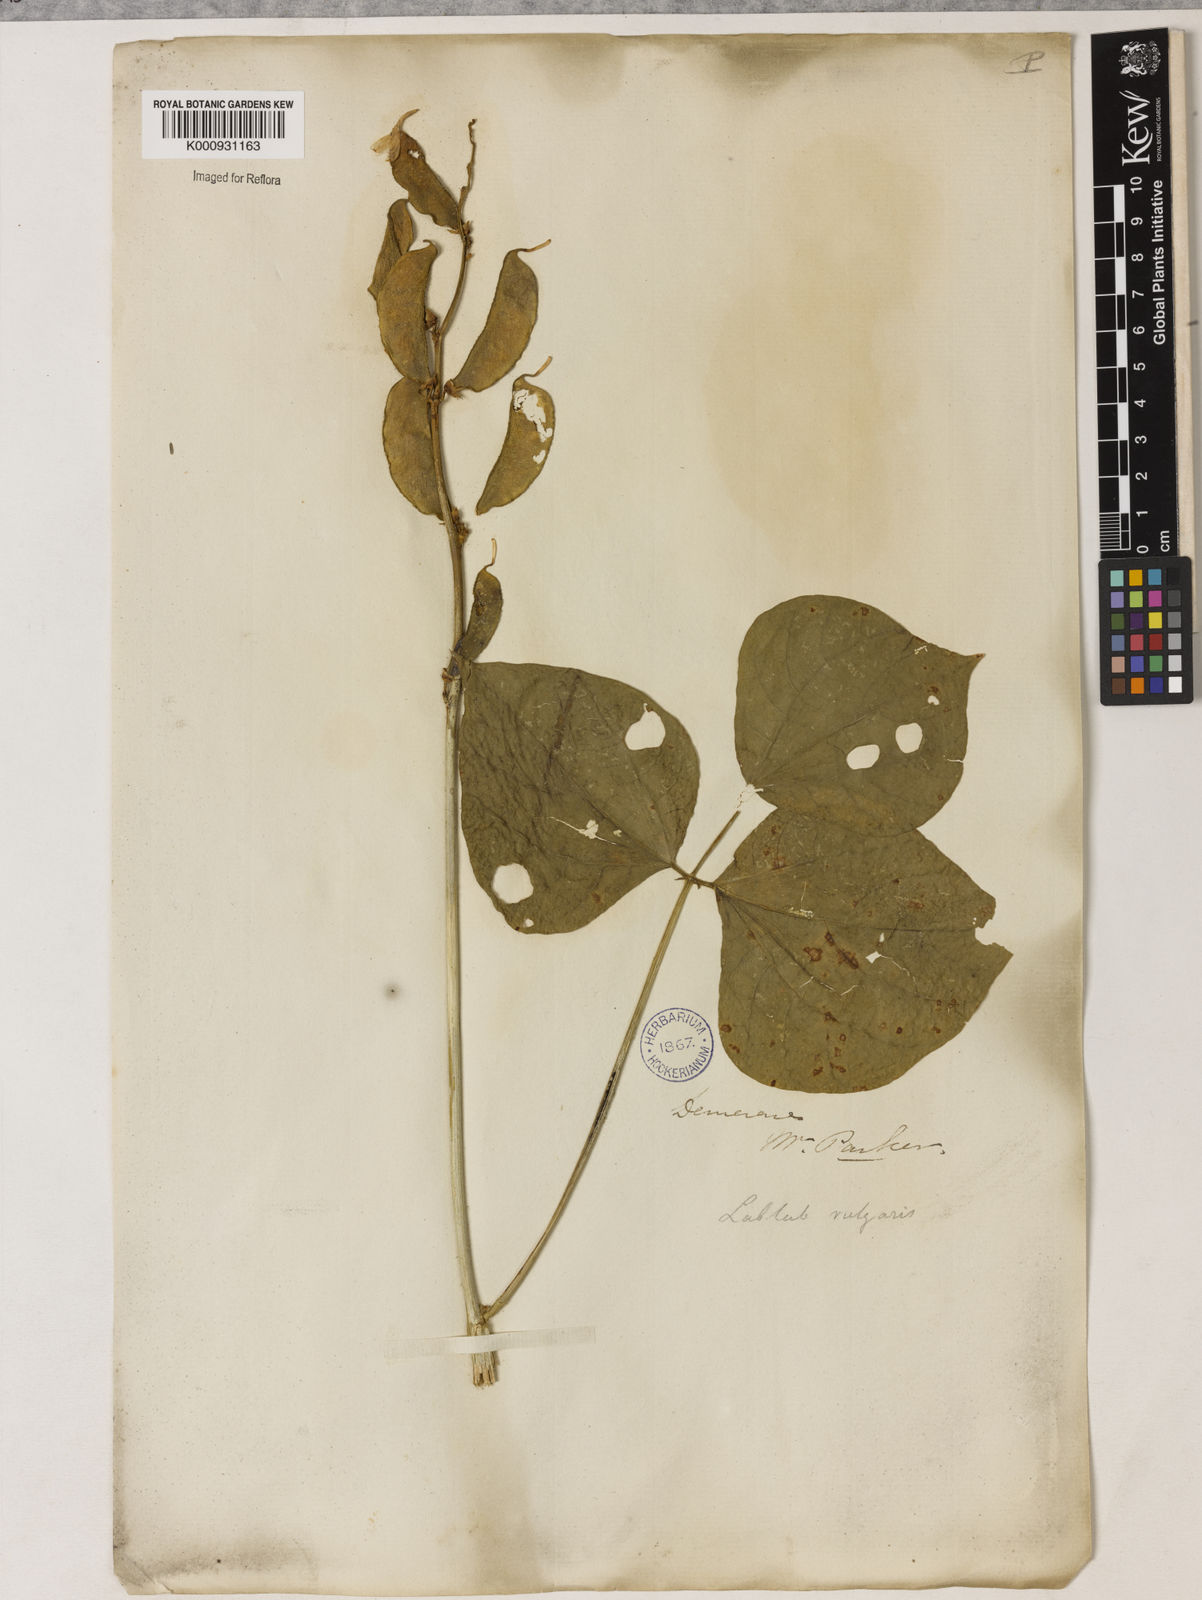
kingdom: Plantae
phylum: Tracheophyta
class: Magnoliopsida
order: Fabales
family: Fabaceae
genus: Lablab
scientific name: Lablab purpureus
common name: Lablab-bean
